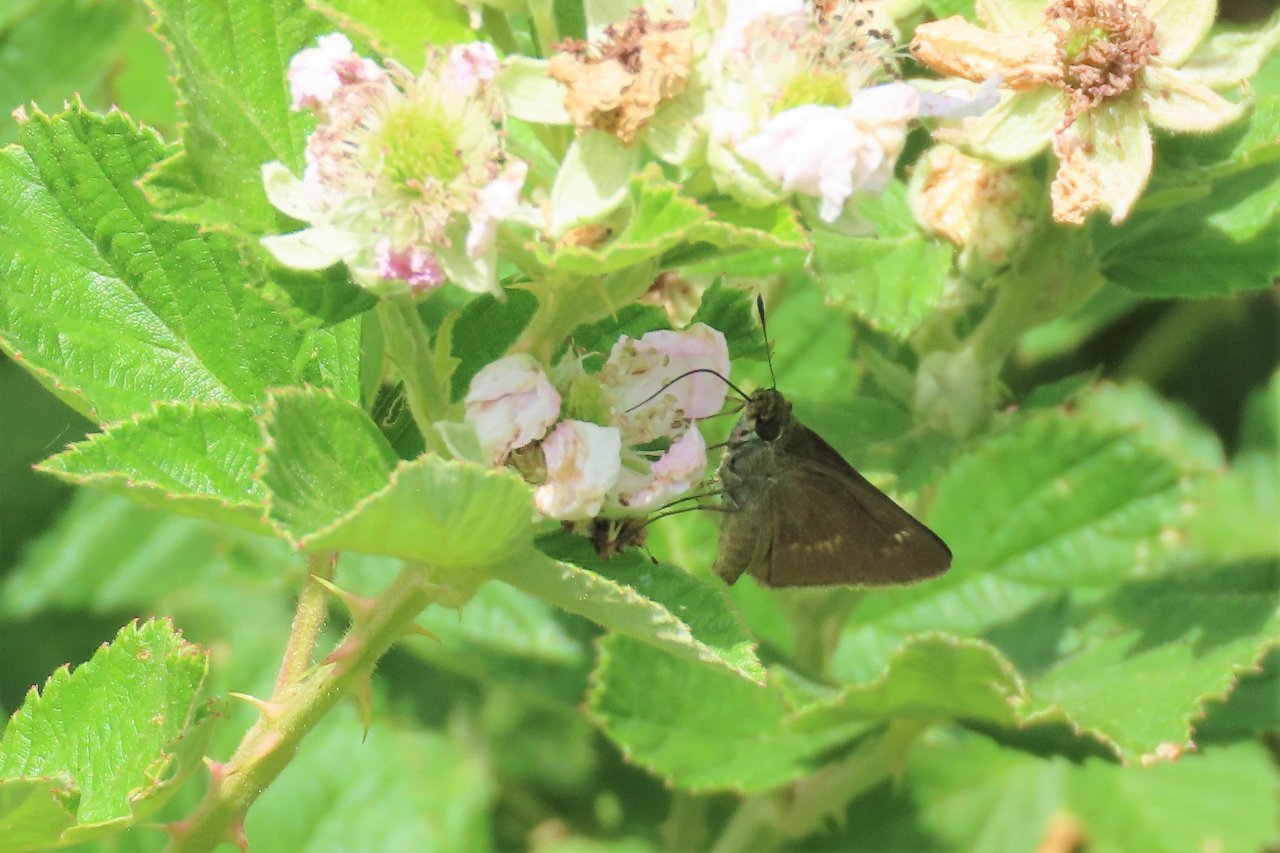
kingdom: Animalia
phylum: Arthropoda
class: Insecta
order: Lepidoptera
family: Hesperiidae
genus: Euphyes
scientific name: Euphyes vestris
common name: Dun Skipper
